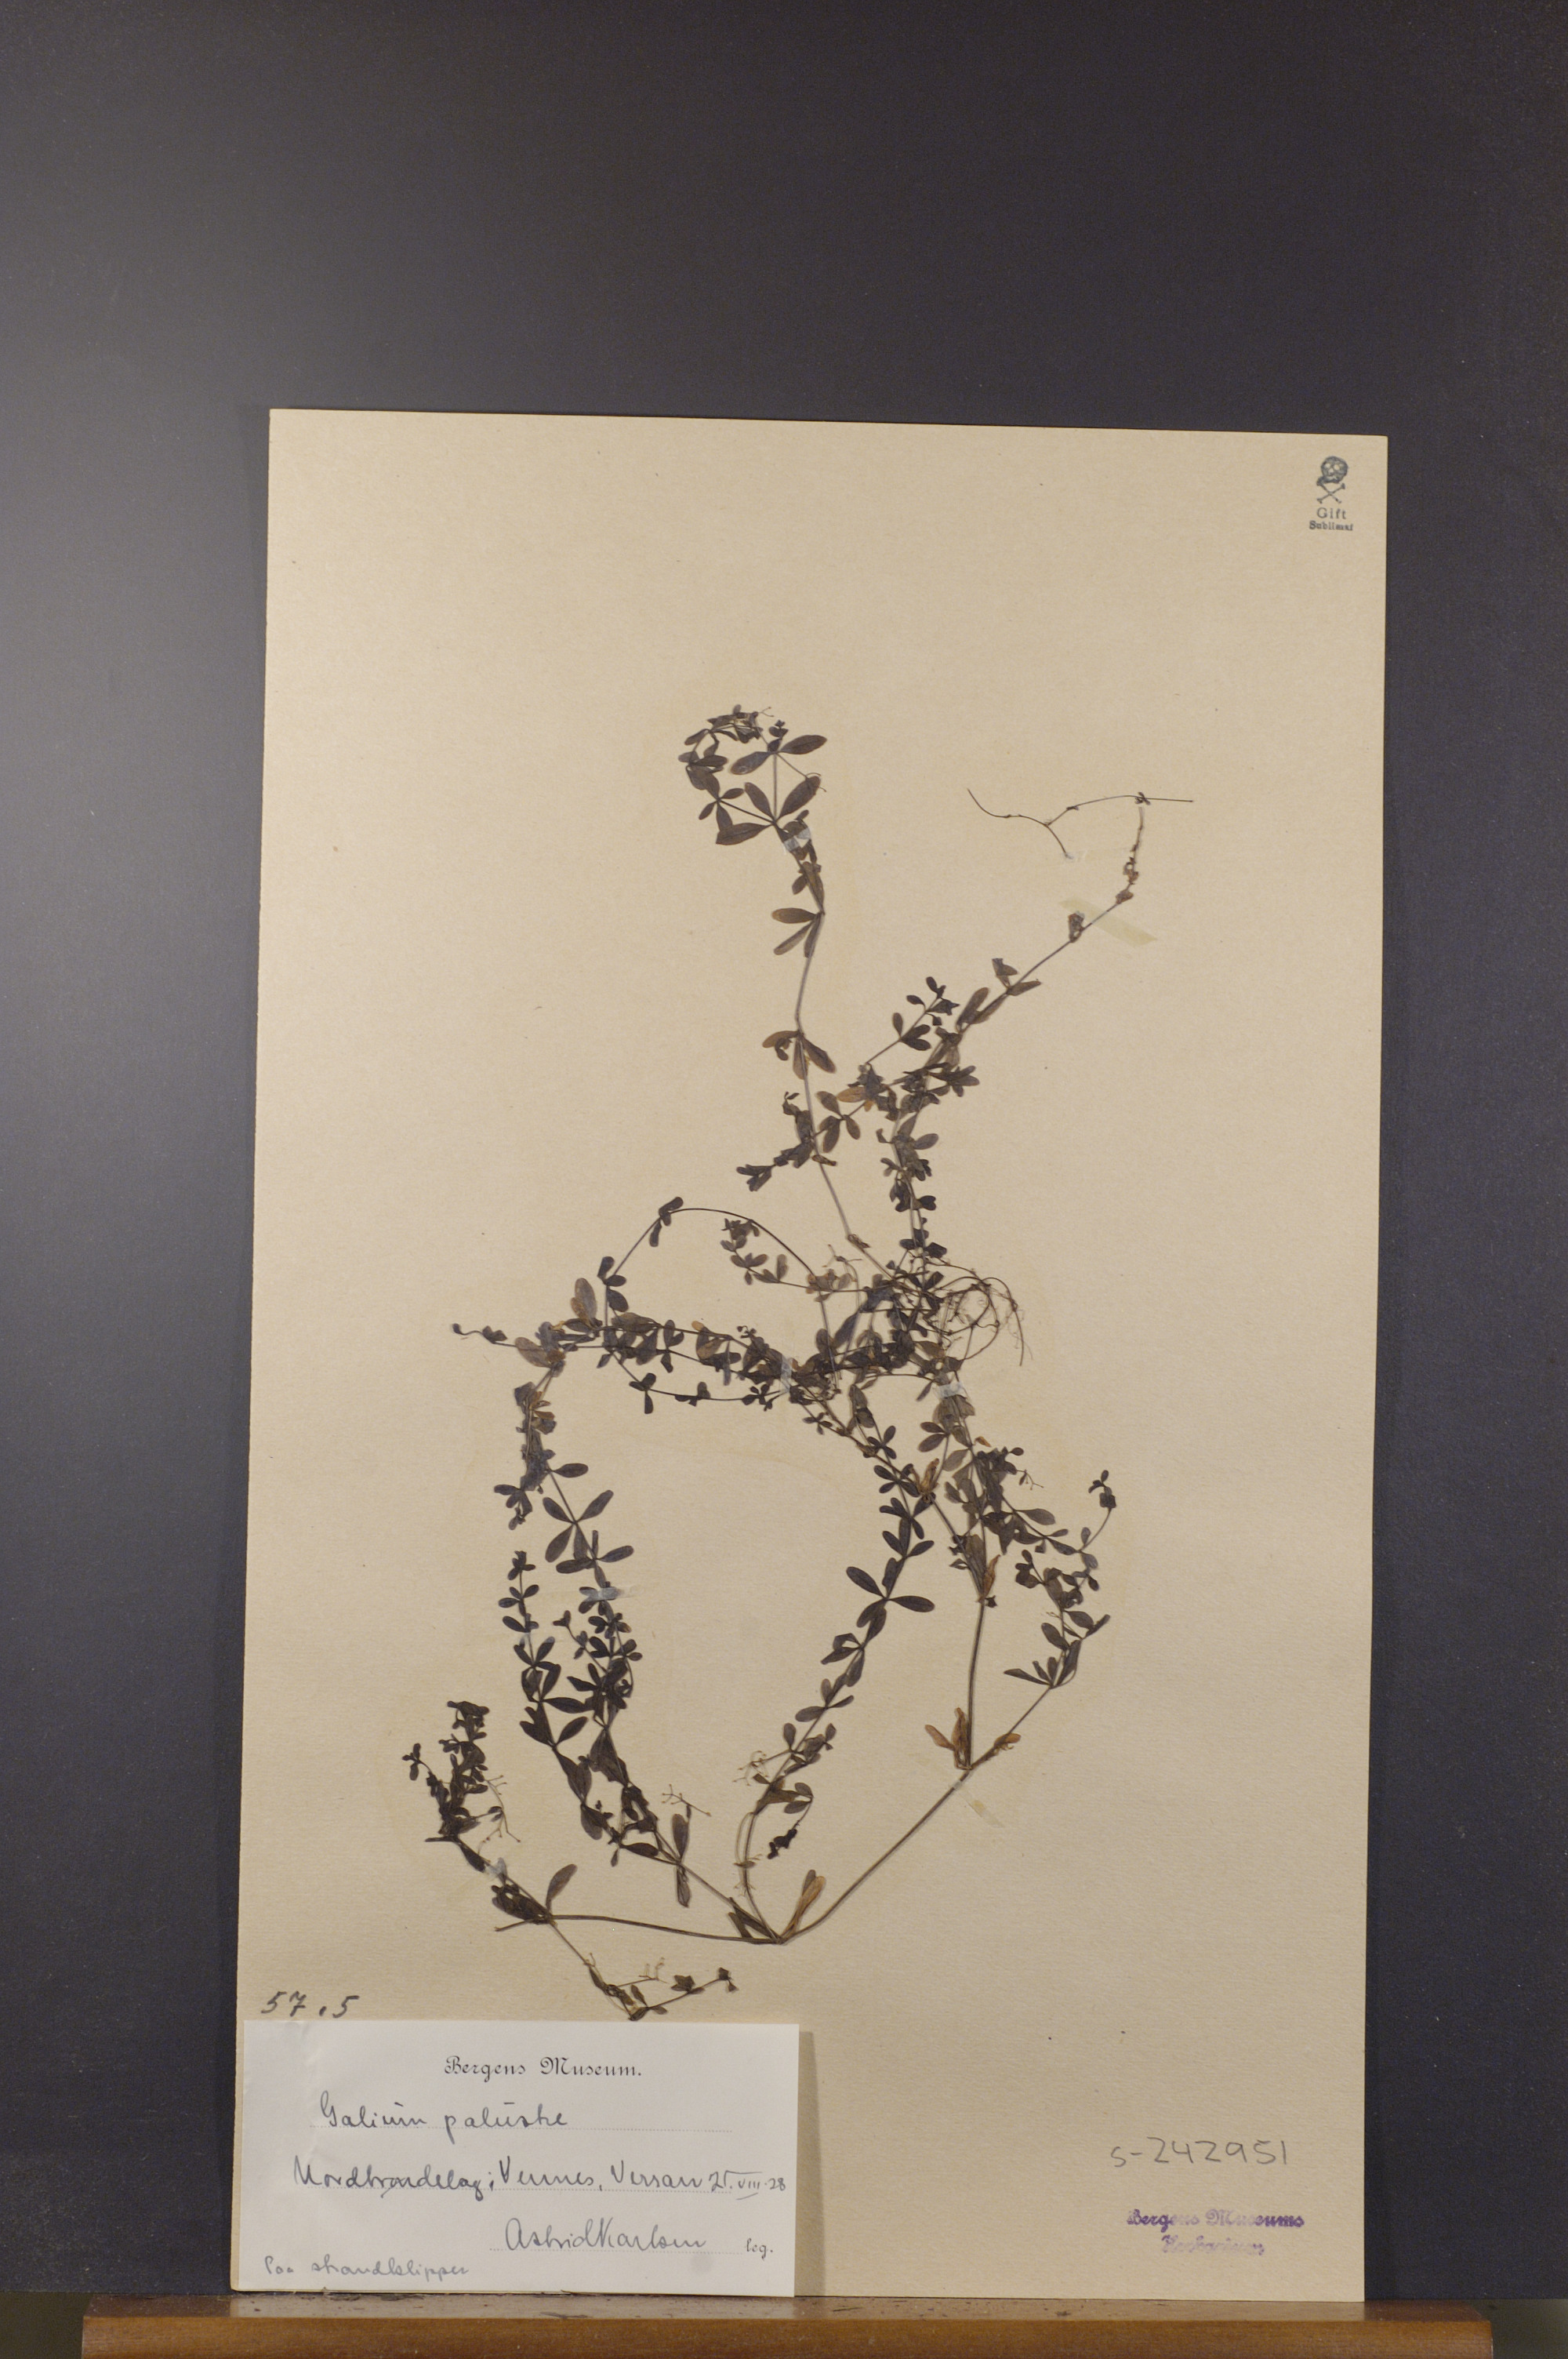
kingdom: Plantae
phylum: Tracheophyta
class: Magnoliopsida
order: Gentianales
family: Rubiaceae
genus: Galium
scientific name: Galium palustre
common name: Common marsh-bedstraw
